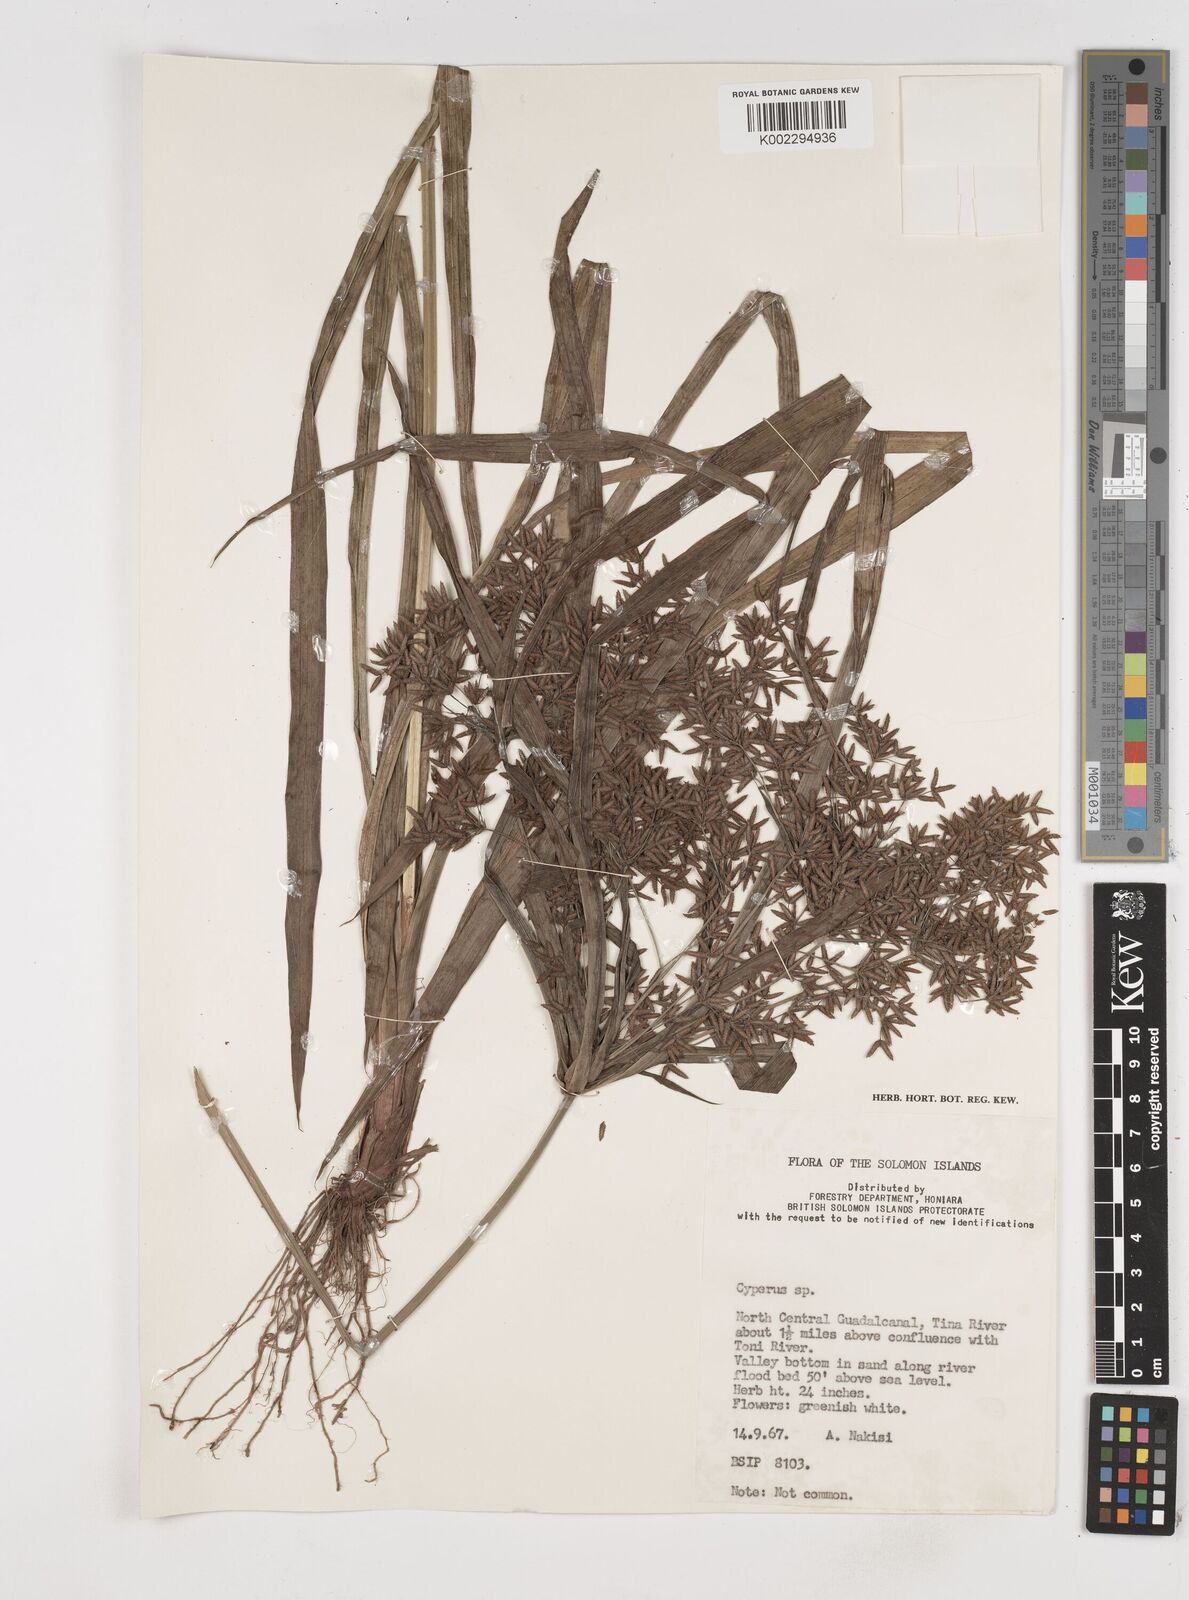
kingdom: Plantae
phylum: Tracheophyta
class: Liliopsida
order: Poales
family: Cyperaceae
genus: Cyperus
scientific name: Cyperus diffusus
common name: Dwarf umbrella grass
